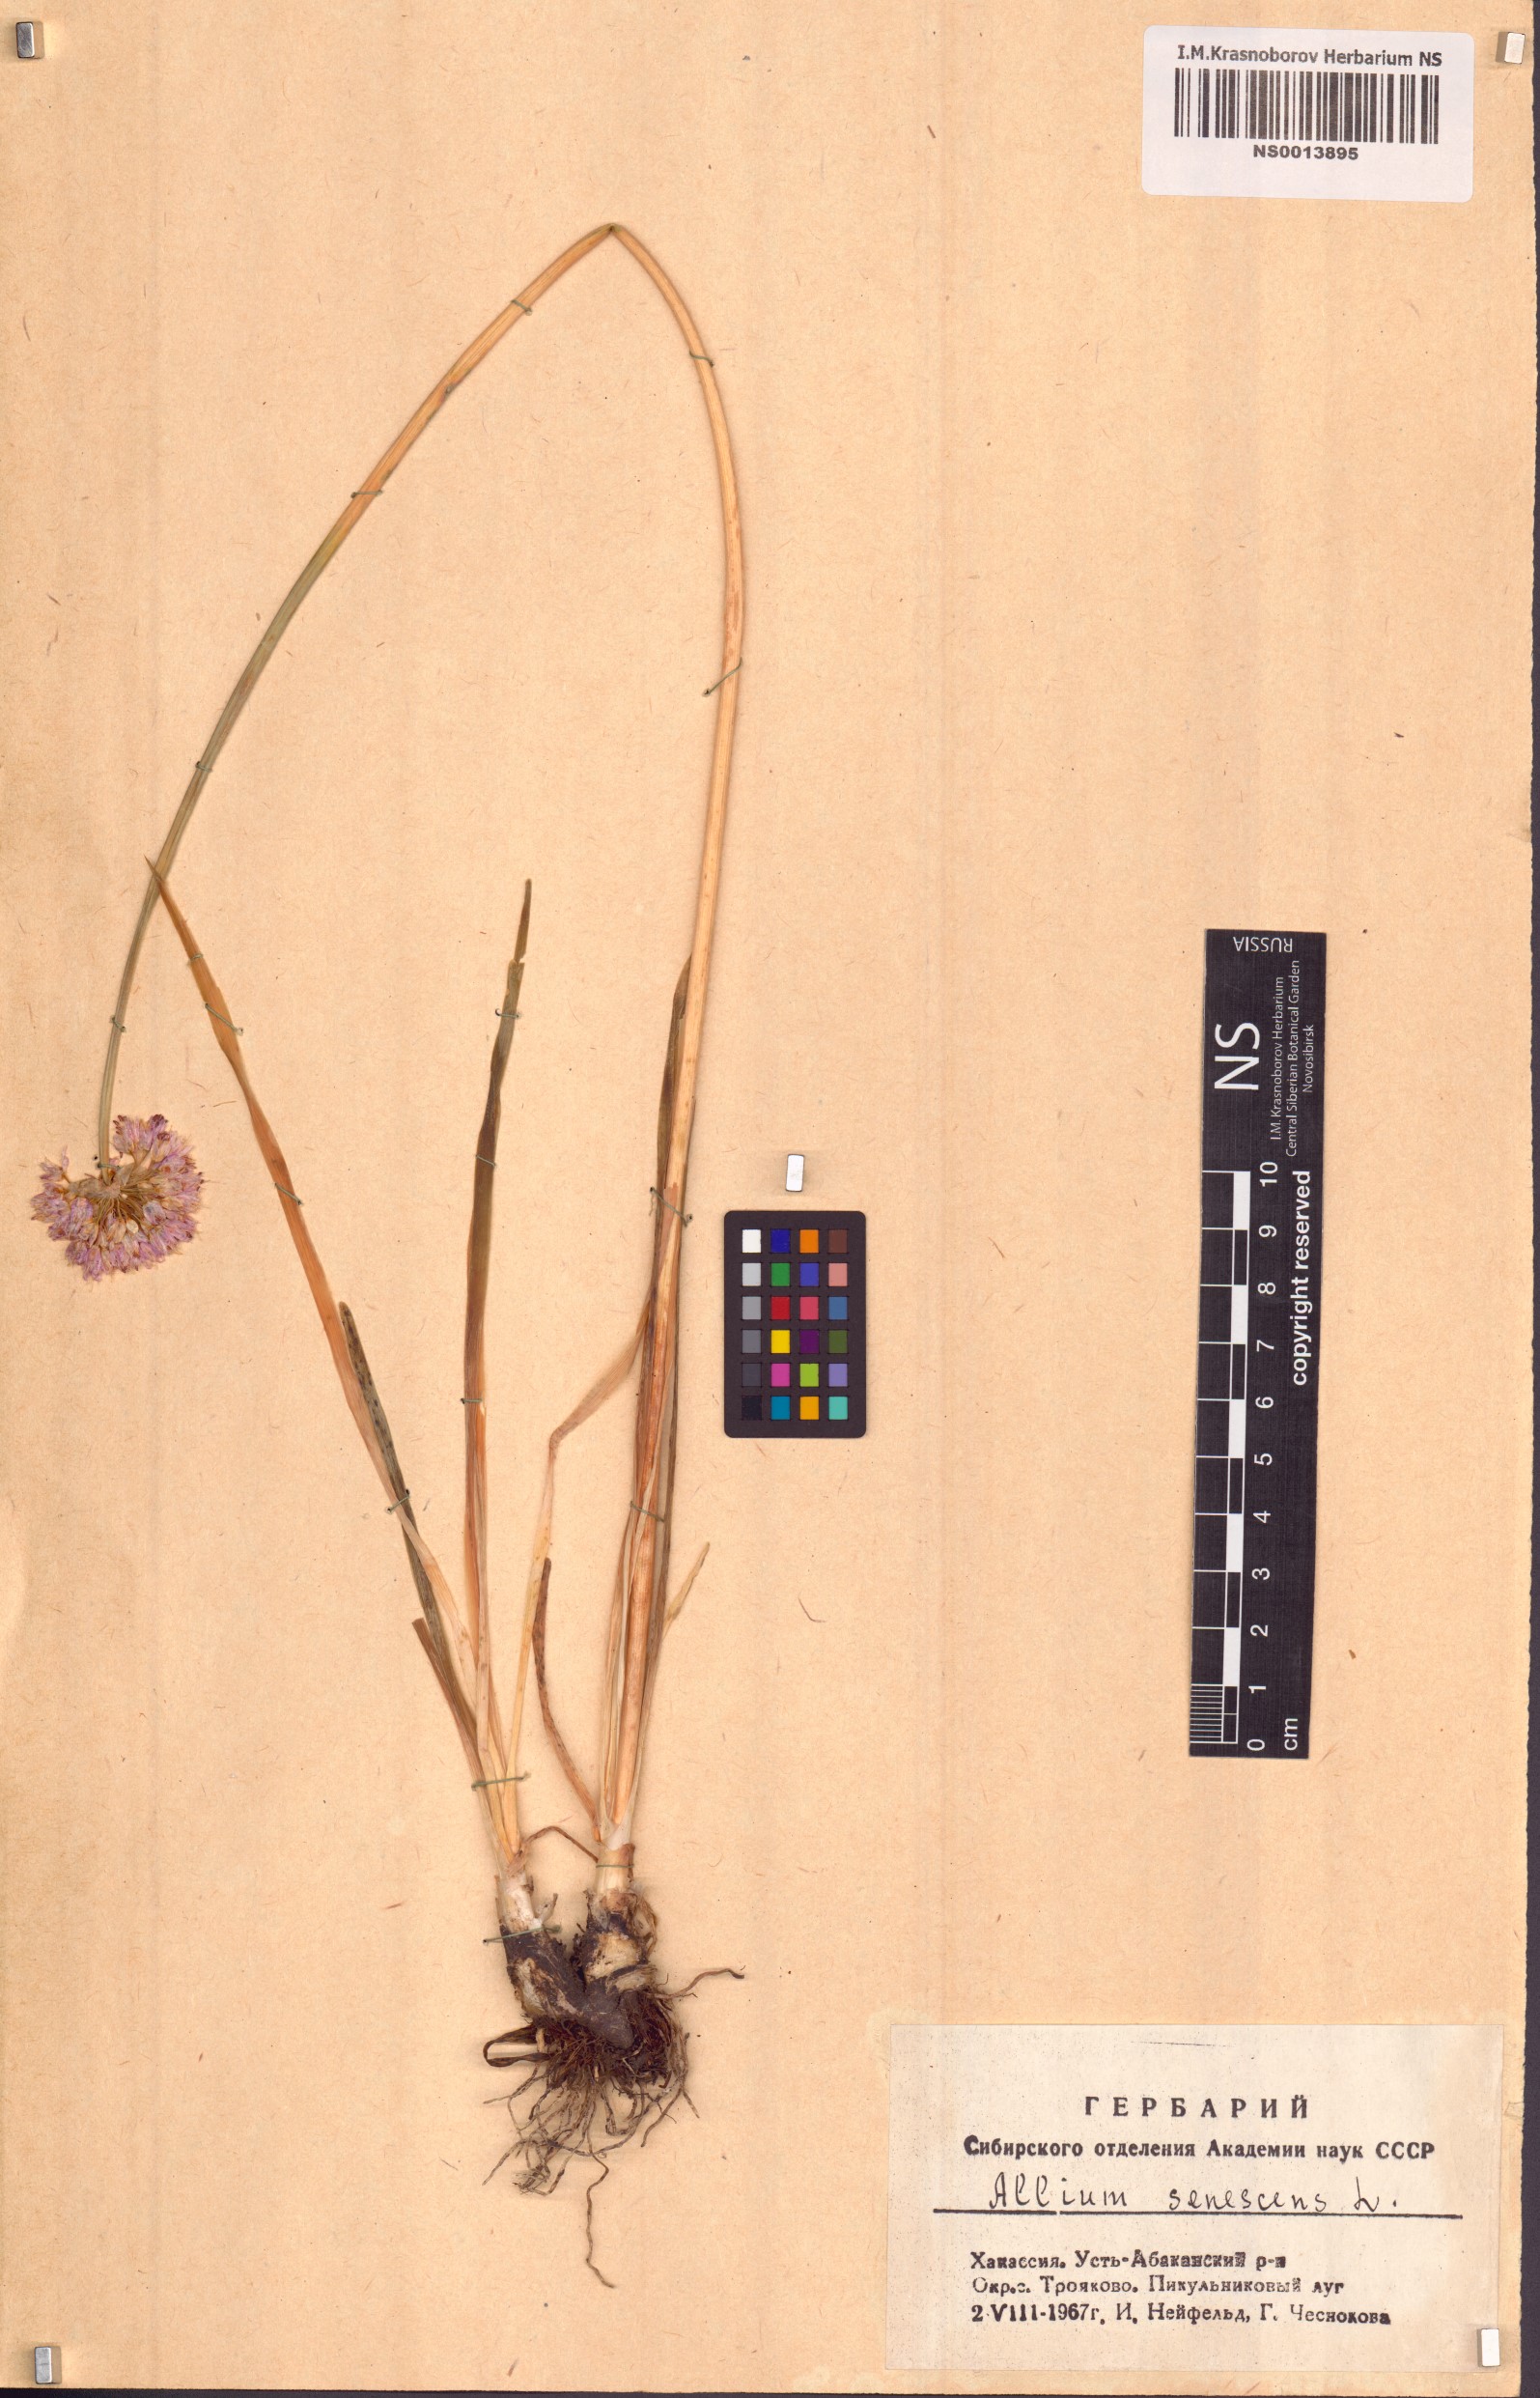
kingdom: Plantae
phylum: Tracheophyta
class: Liliopsida
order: Asparagales
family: Amaryllidaceae
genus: Allium
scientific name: Allium senescens
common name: German garlic
